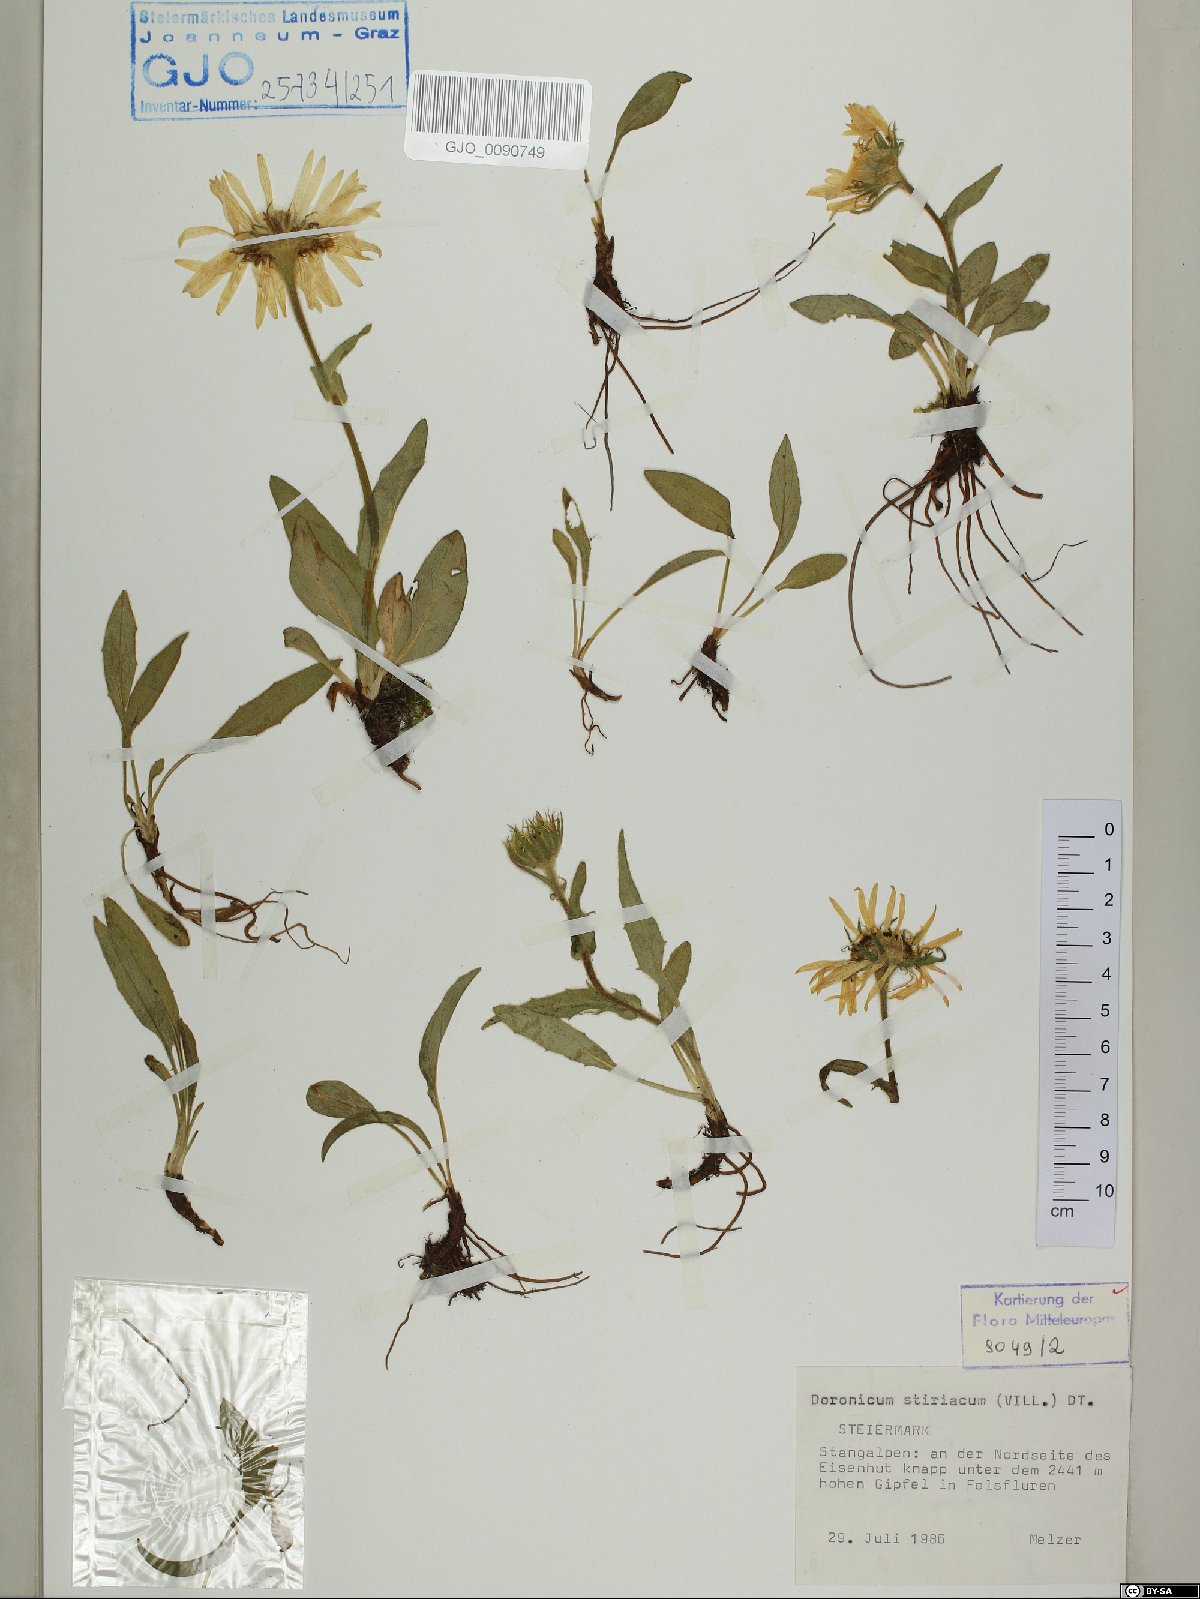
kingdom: Plantae
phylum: Tracheophyta
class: Magnoliopsida
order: Asterales
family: Asteraceae
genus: Doronicum
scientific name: Doronicum clusii
